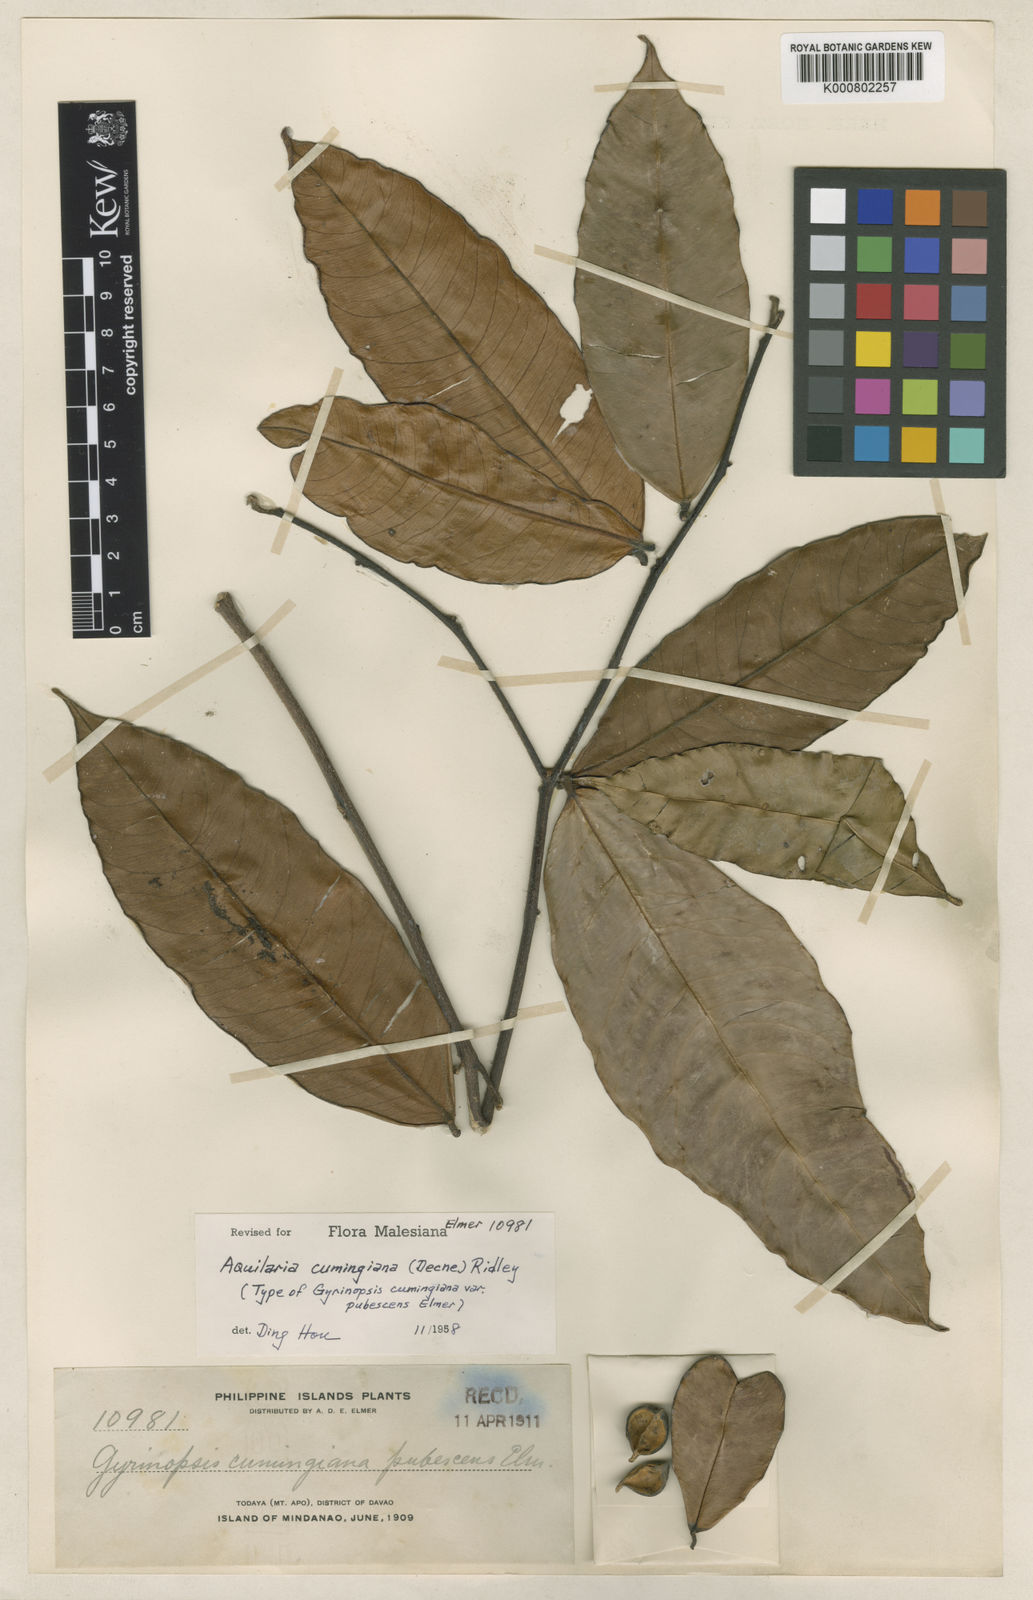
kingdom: Plantae
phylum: Tracheophyta
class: Magnoliopsida
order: Malvales
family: Thymelaeaceae
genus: Aquilaria
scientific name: Aquilaria cumingiana
